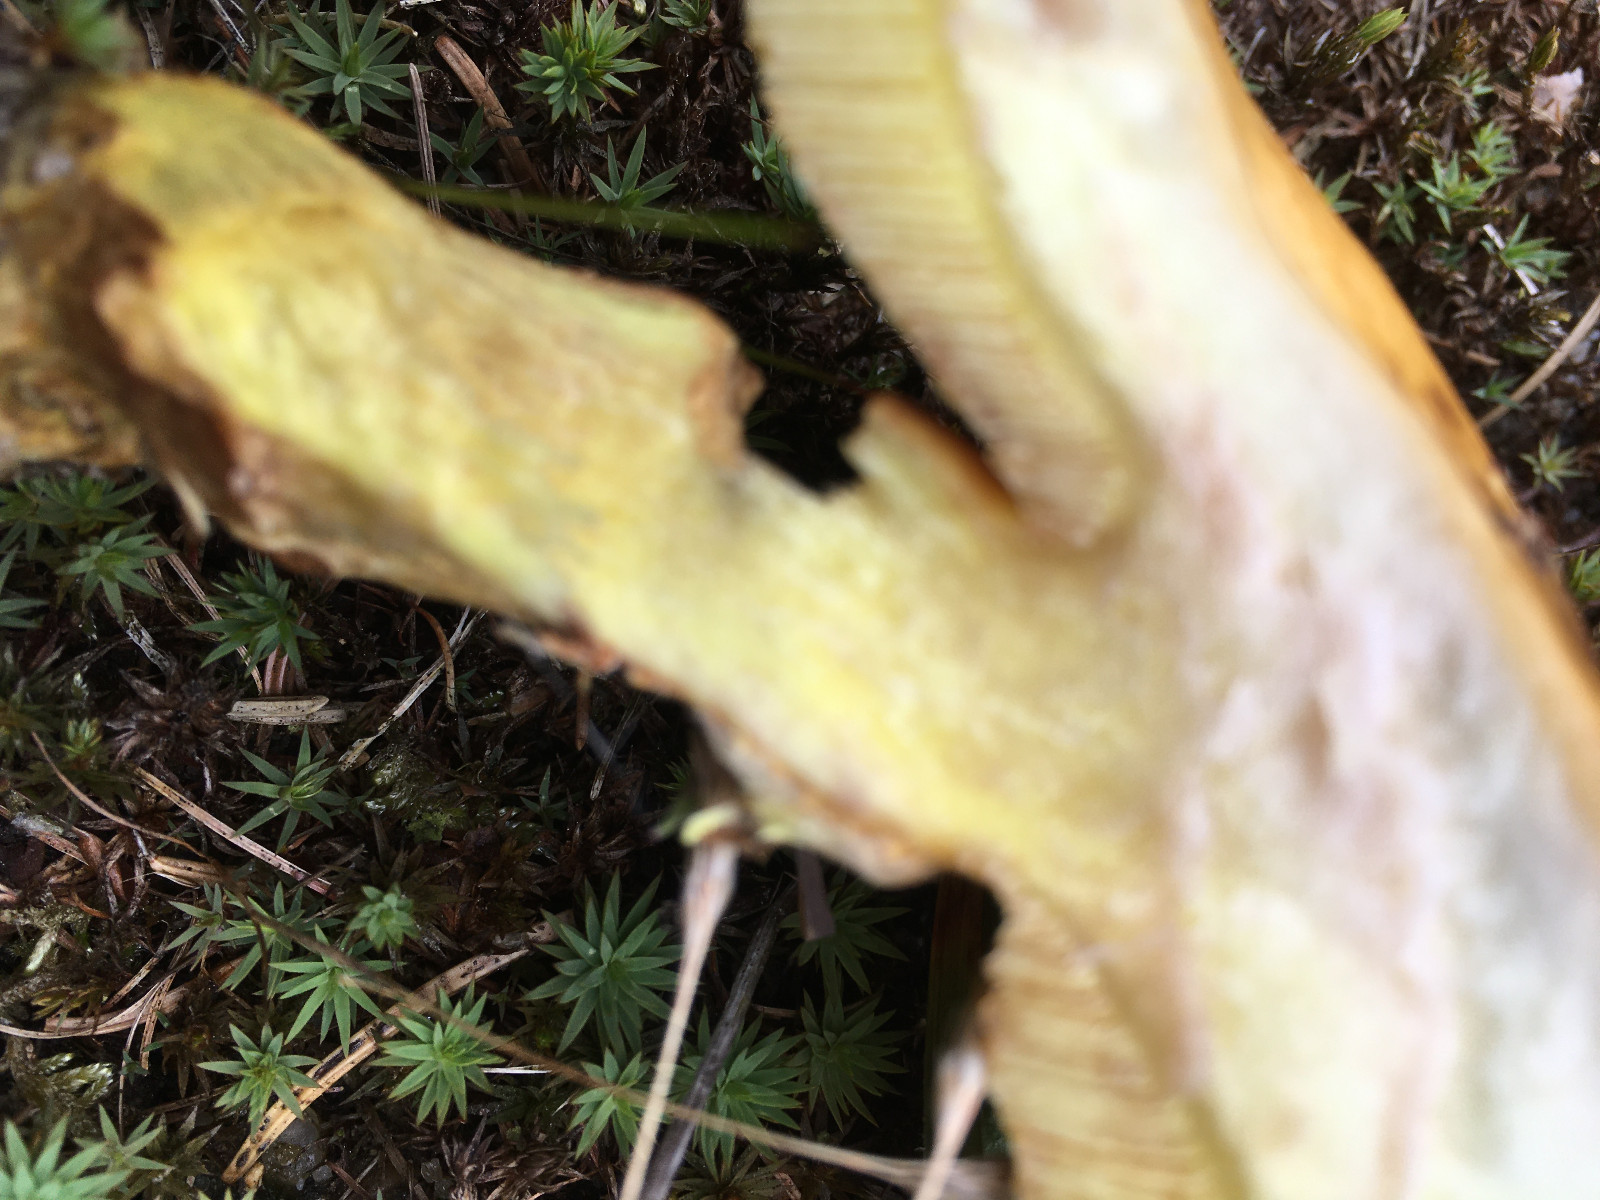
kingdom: Fungi
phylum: Basidiomycota
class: Agaricomycetes
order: Boletales
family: Suillaceae
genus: Suillus
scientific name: Suillus grevillei
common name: lærke-slimrørhat
